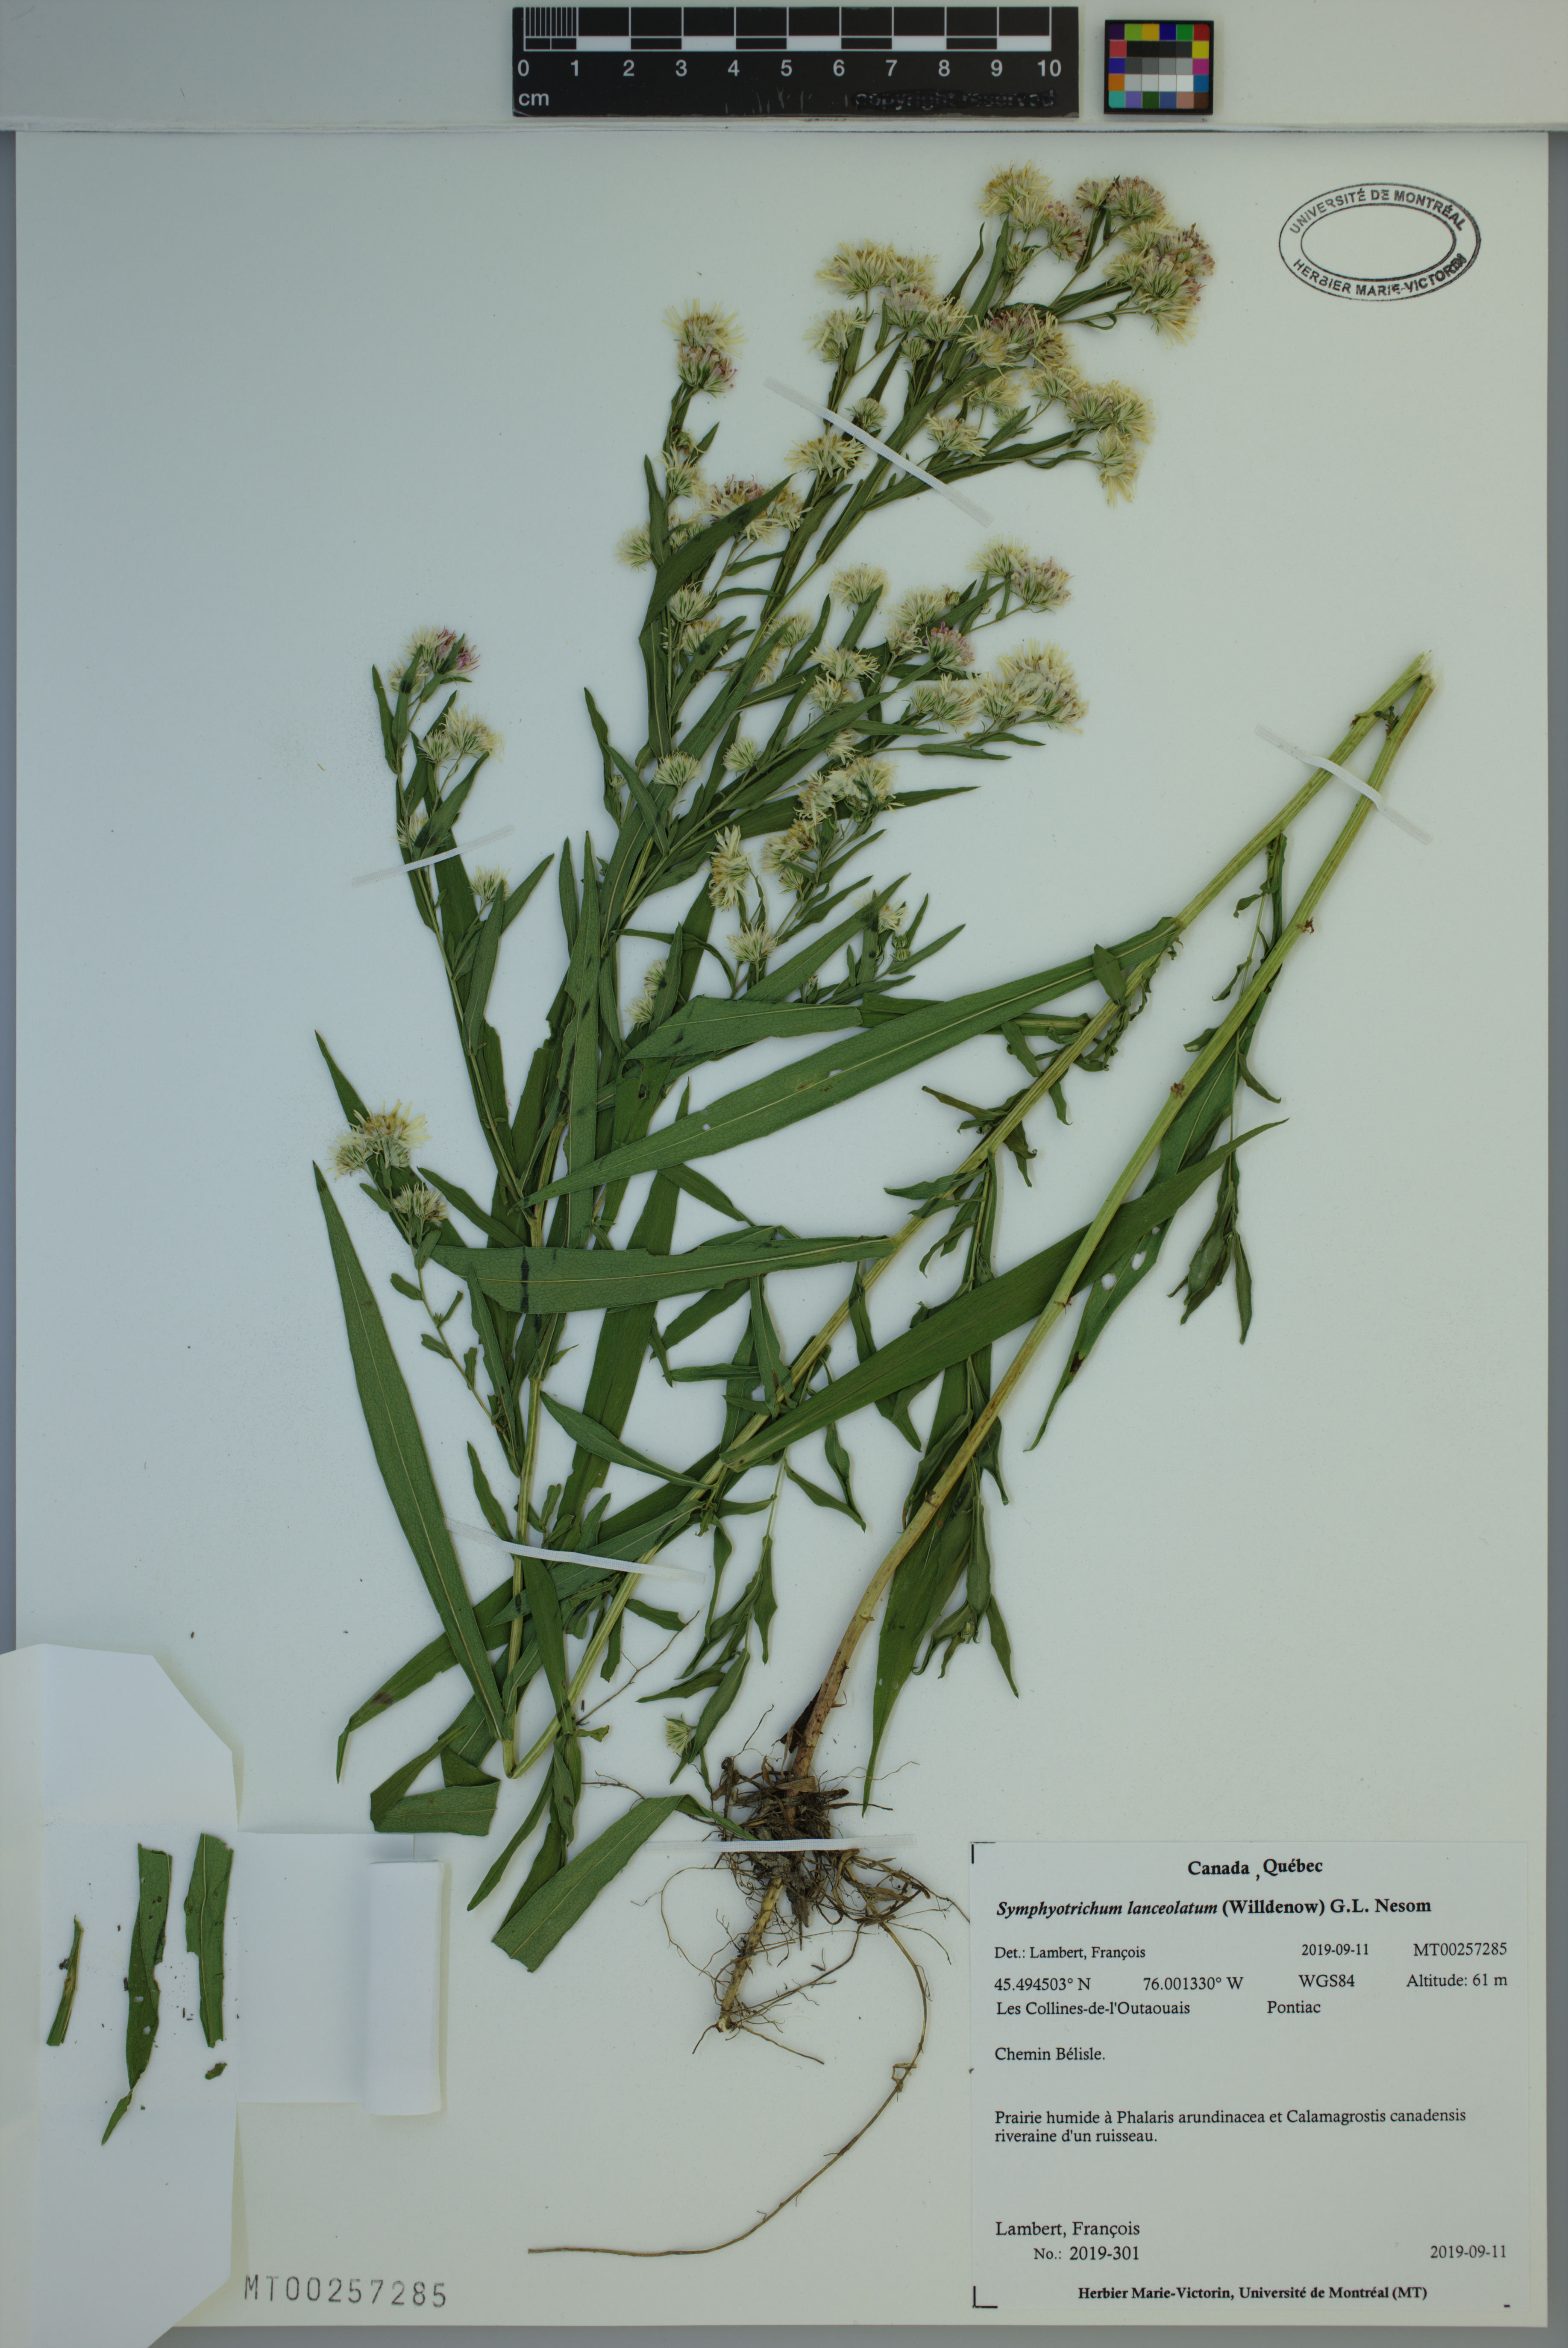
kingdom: Plantae
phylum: Tracheophyta
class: Magnoliopsida
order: Asterales
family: Asteraceae
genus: Symphyotrichum
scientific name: Symphyotrichum lanceolatum
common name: Panicled aster
